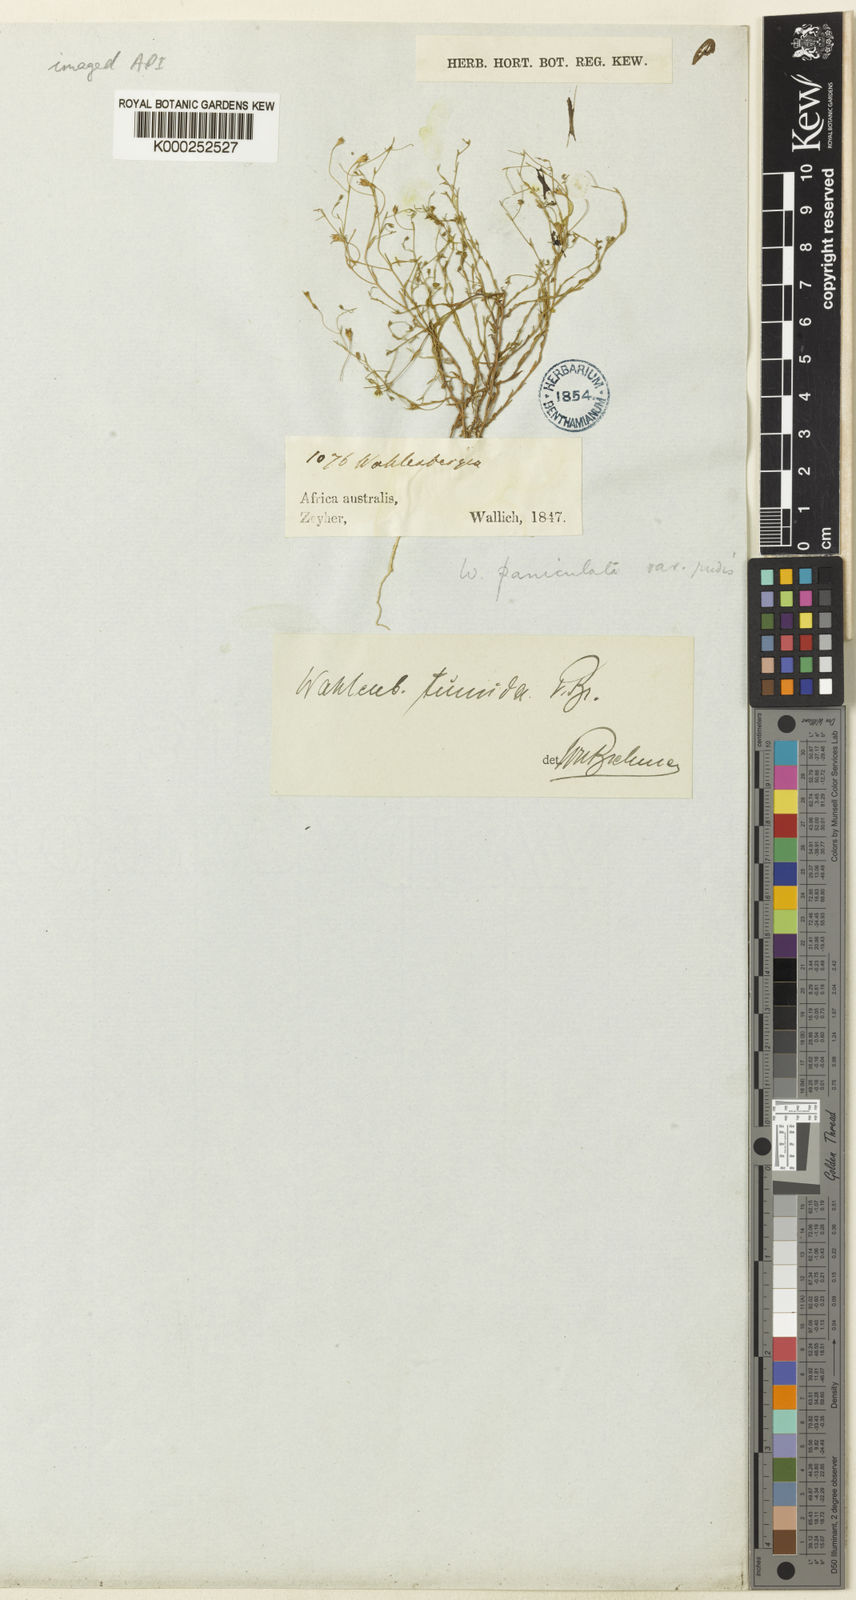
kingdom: Plantae
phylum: Tracheophyta
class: Magnoliopsida
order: Asterales
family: Campanulaceae
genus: Wahlenbergia
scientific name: Wahlenbergia tumida
